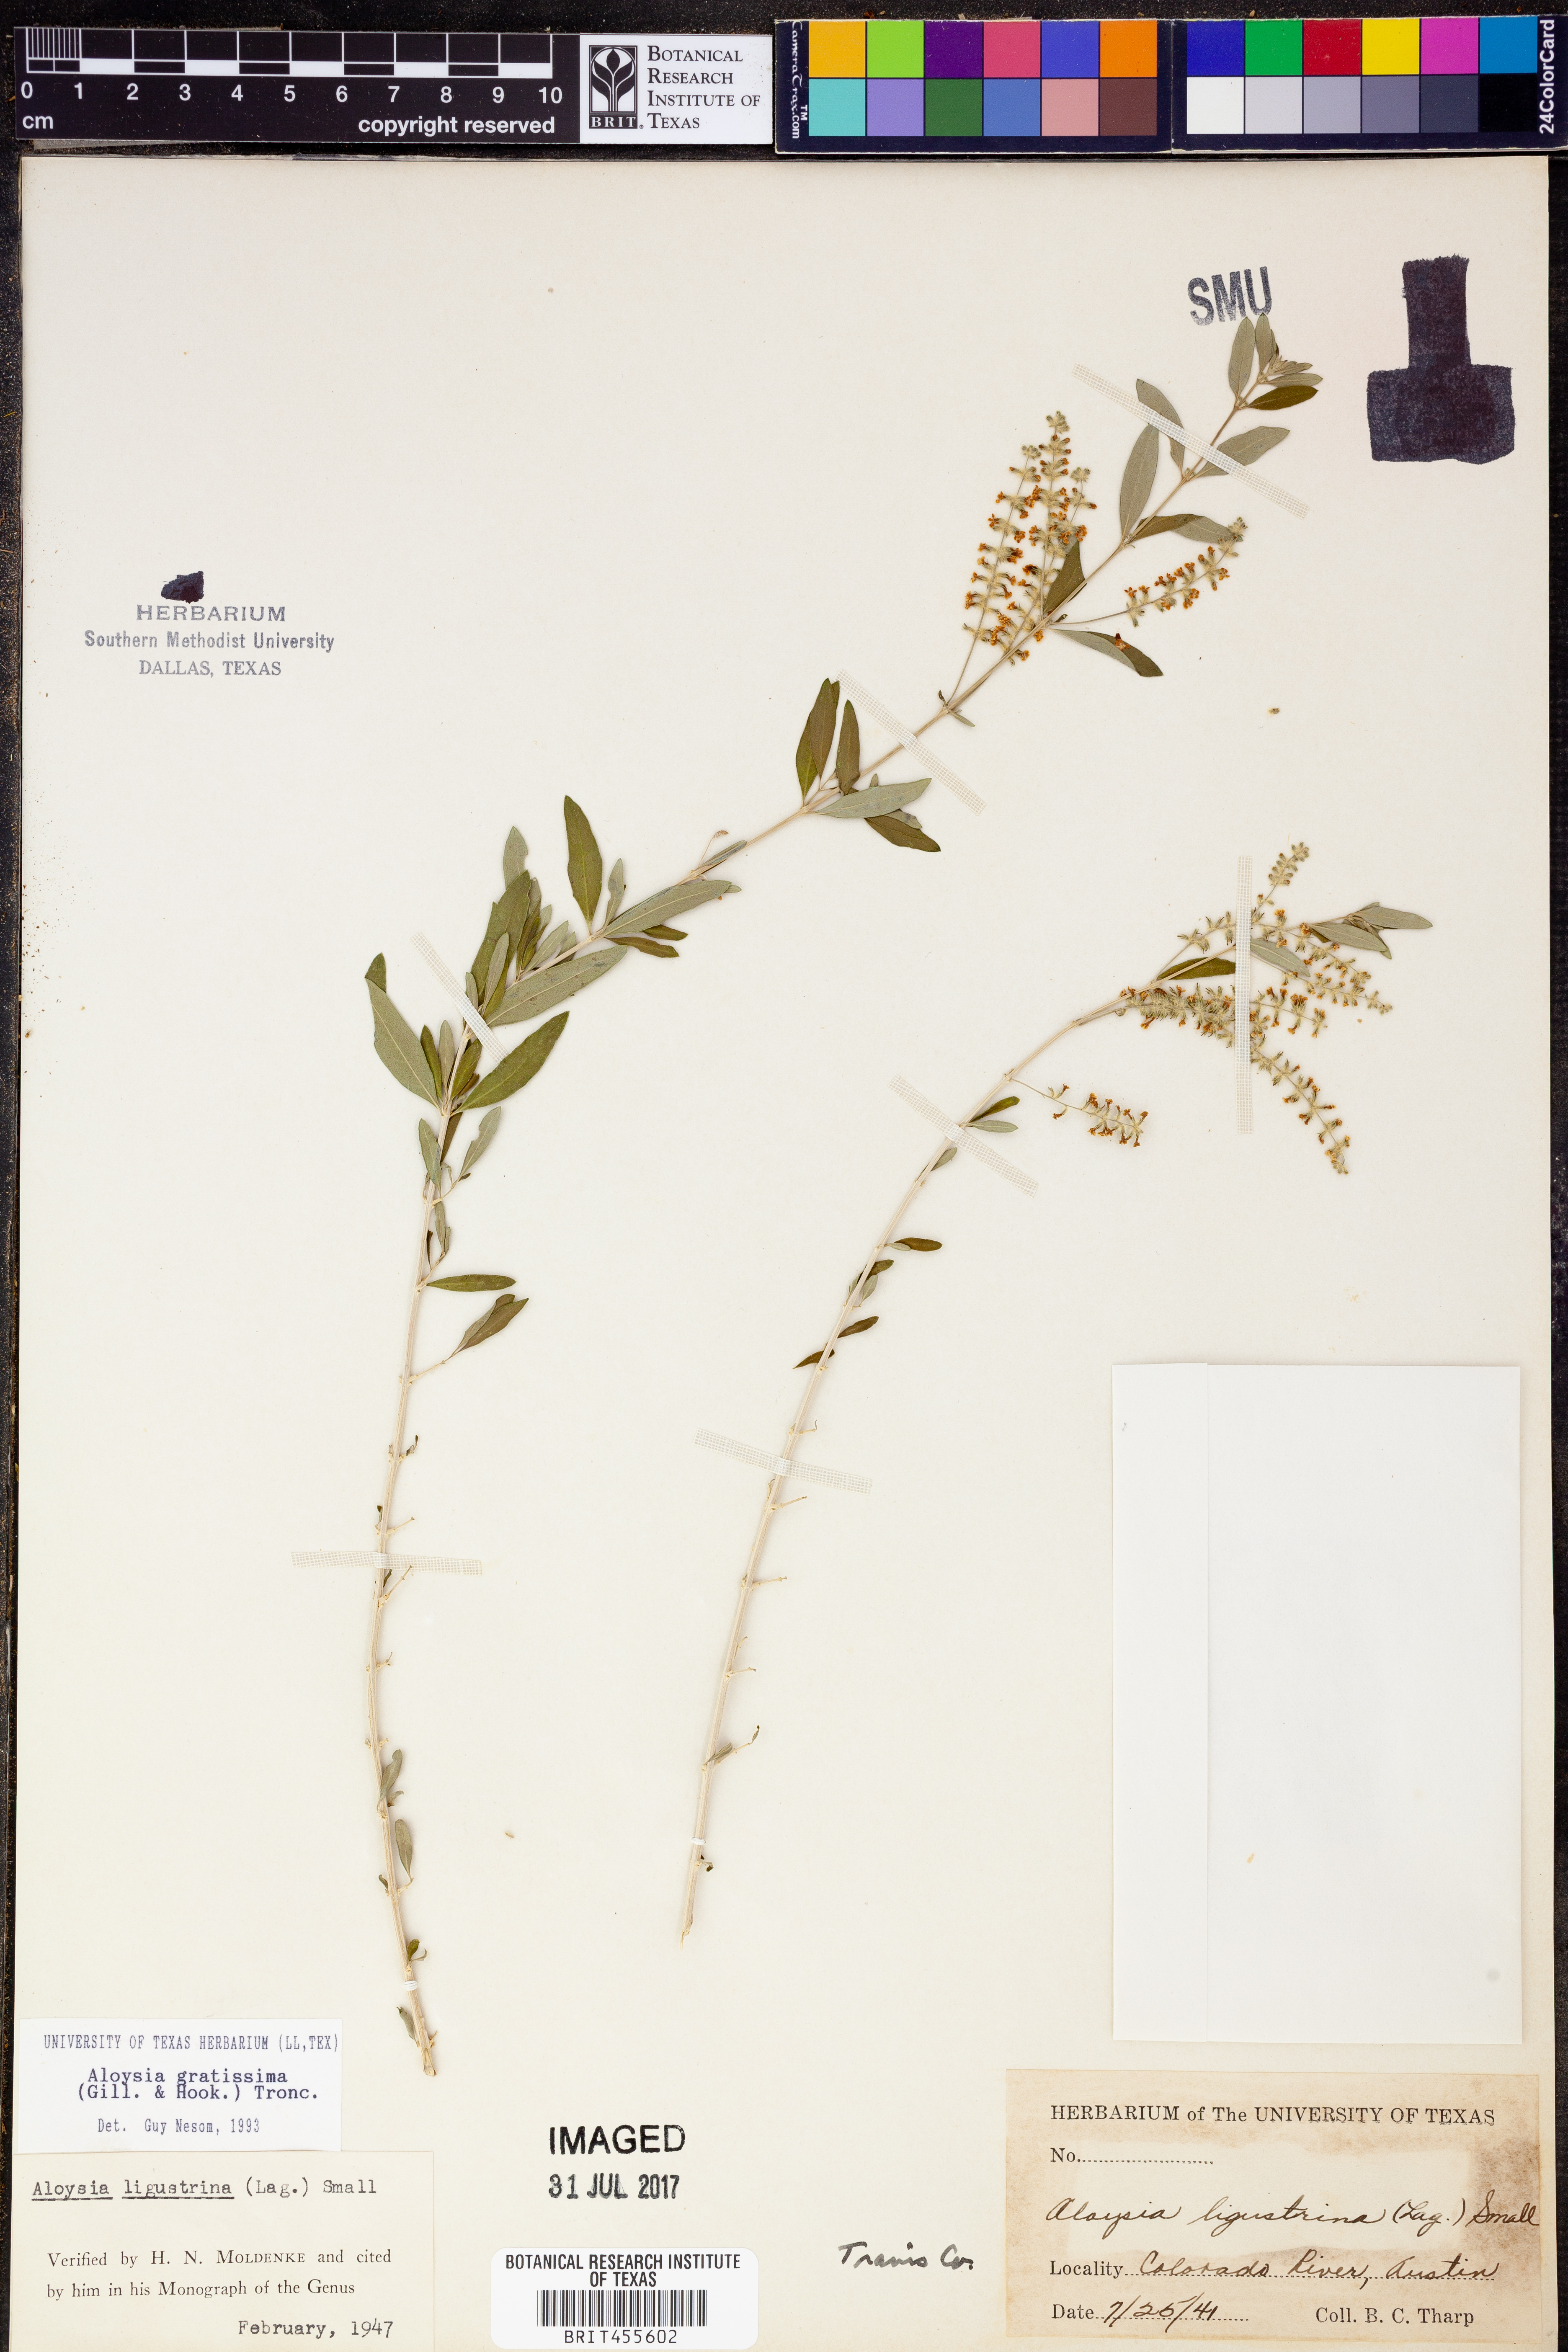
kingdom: Plantae
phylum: Tracheophyta
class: Magnoliopsida
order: Lamiales
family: Verbenaceae
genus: Aloysia
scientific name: Aloysia gratissima
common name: Common bee-brush
